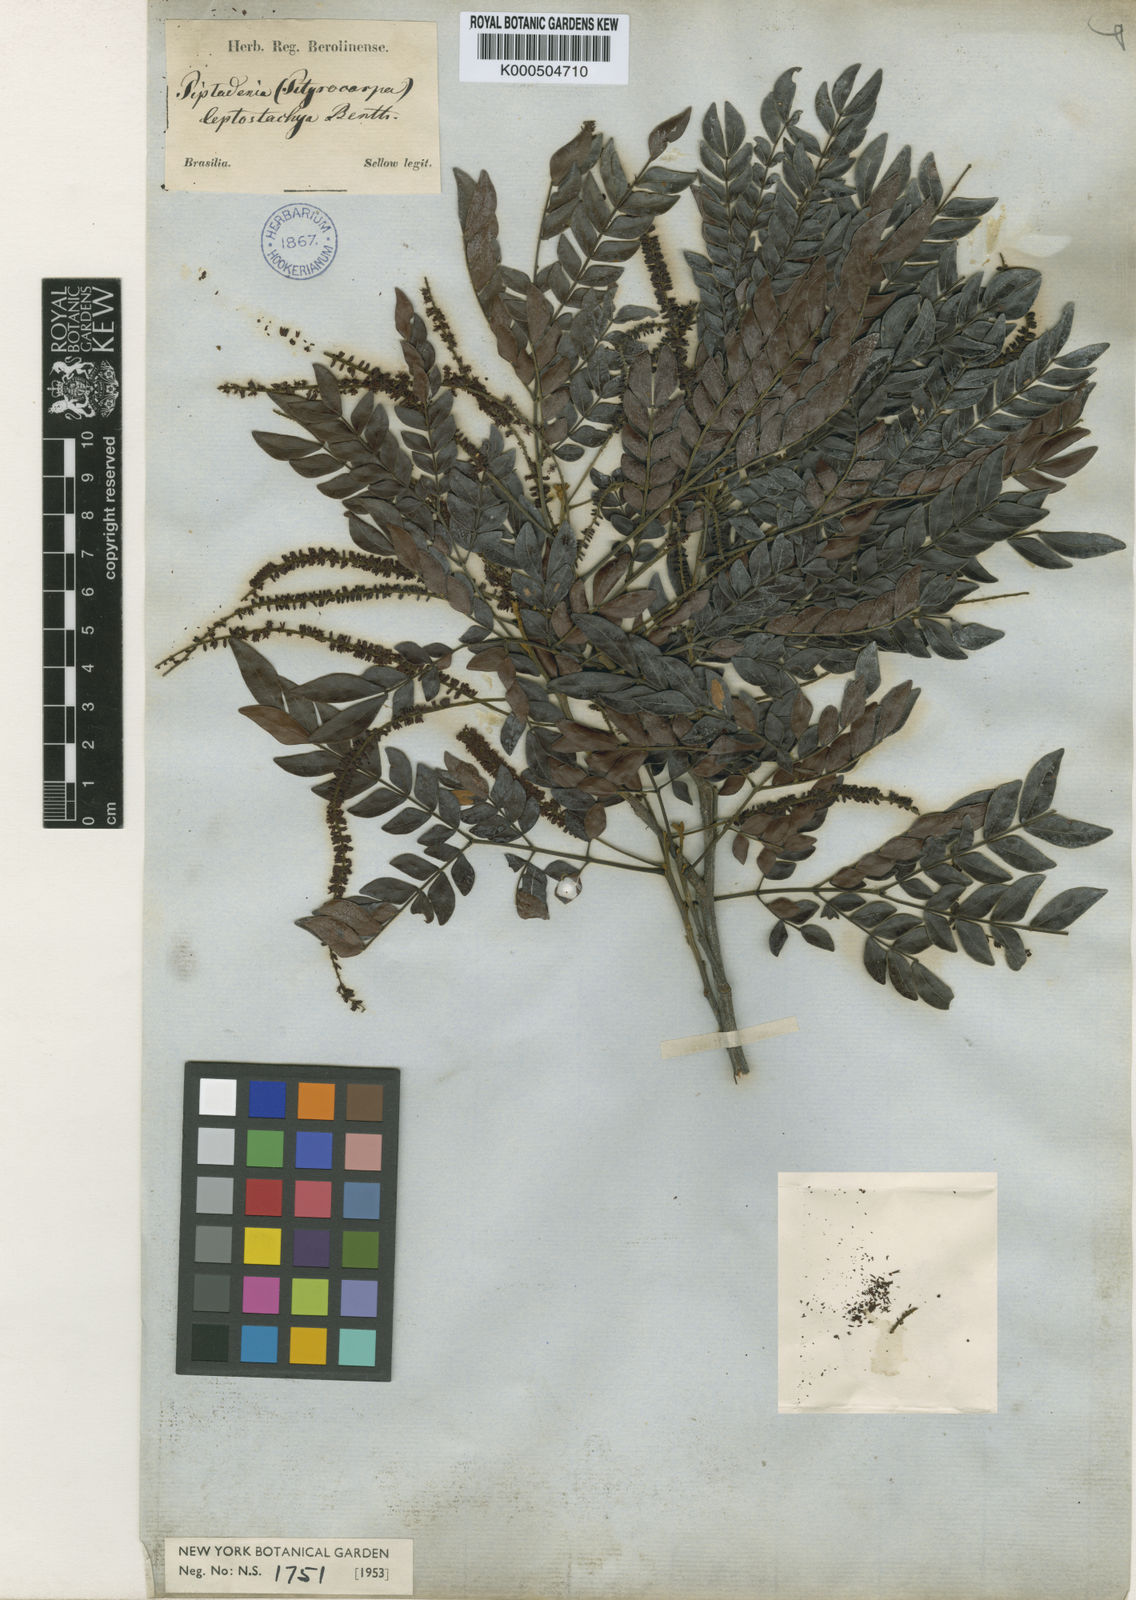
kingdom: Plantae
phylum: Tracheophyta
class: Magnoliopsida
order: Fabales
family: Fabaceae
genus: Pseudopiptadenia
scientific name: Pseudopiptadenia leptostachya
